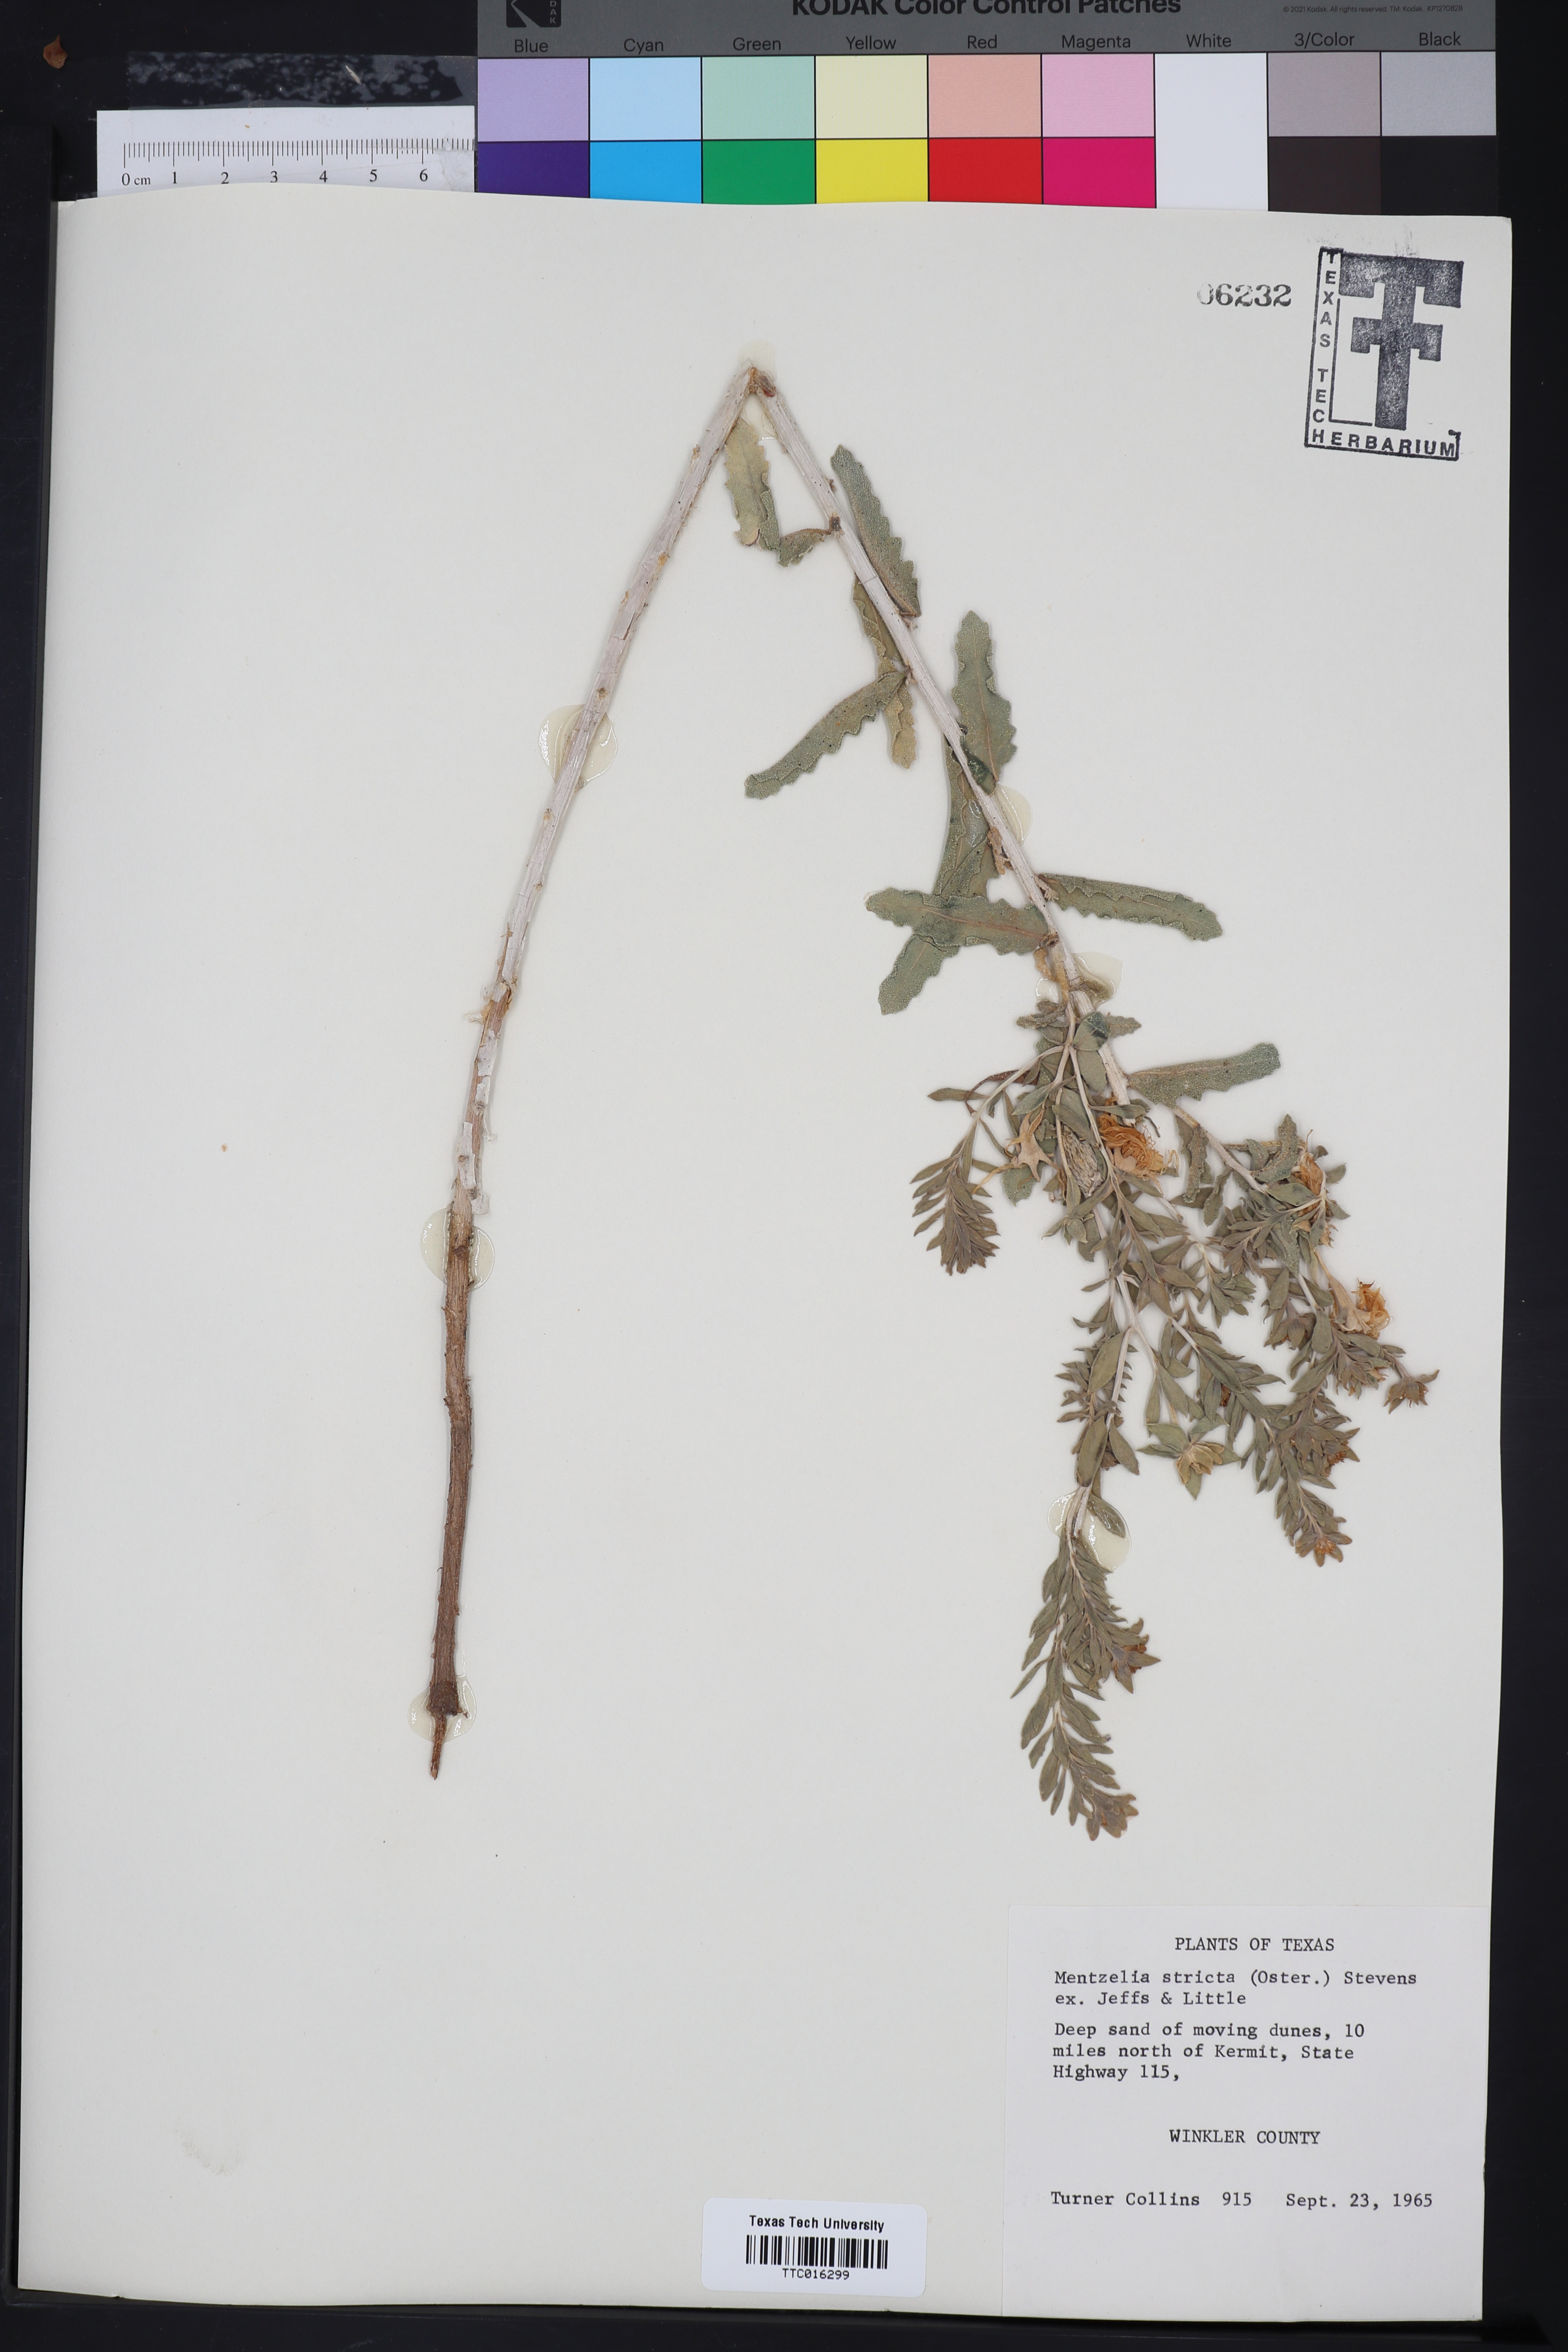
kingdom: Plantae
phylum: Tracheophyta
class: Magnoliopsida
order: Cornales
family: Loasaceae
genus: Mentzelia
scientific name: Mentzelia nuda
